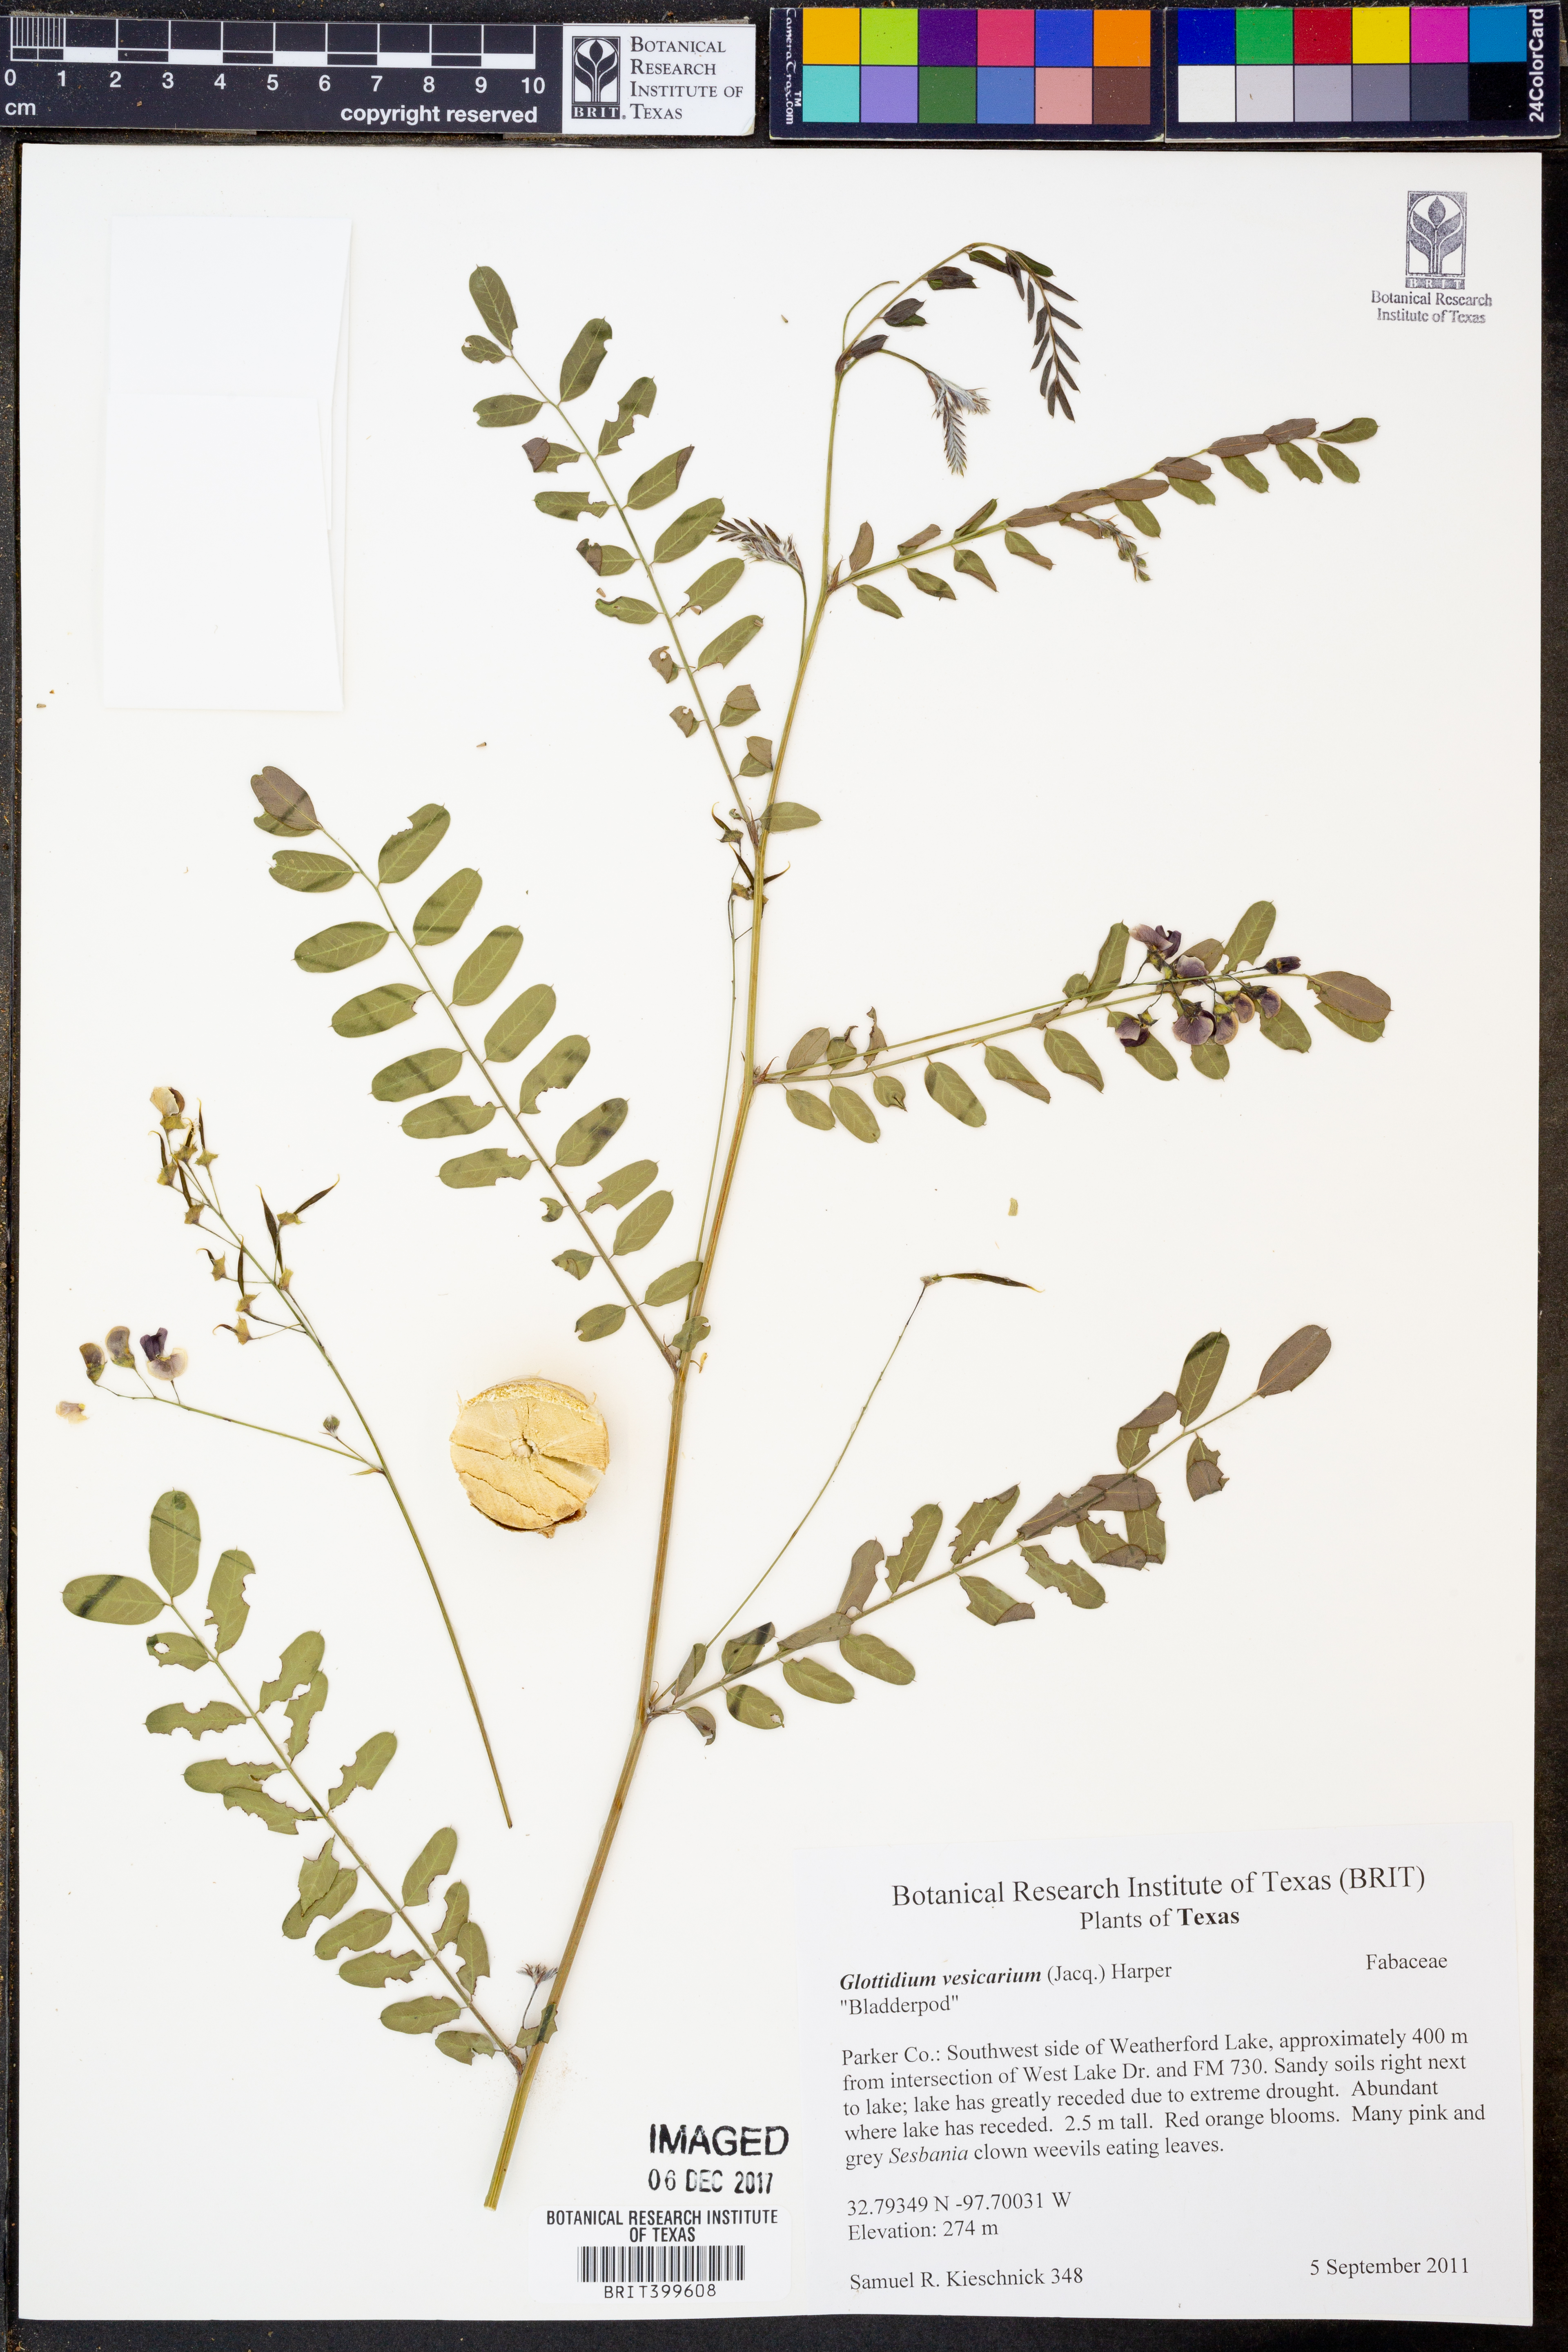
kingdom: Plantae
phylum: Tracheophyta
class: Magnoliopsida
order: Fabales
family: Fabaceae
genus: Sesbania
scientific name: Sesbania vesicaria
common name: Bagpod
